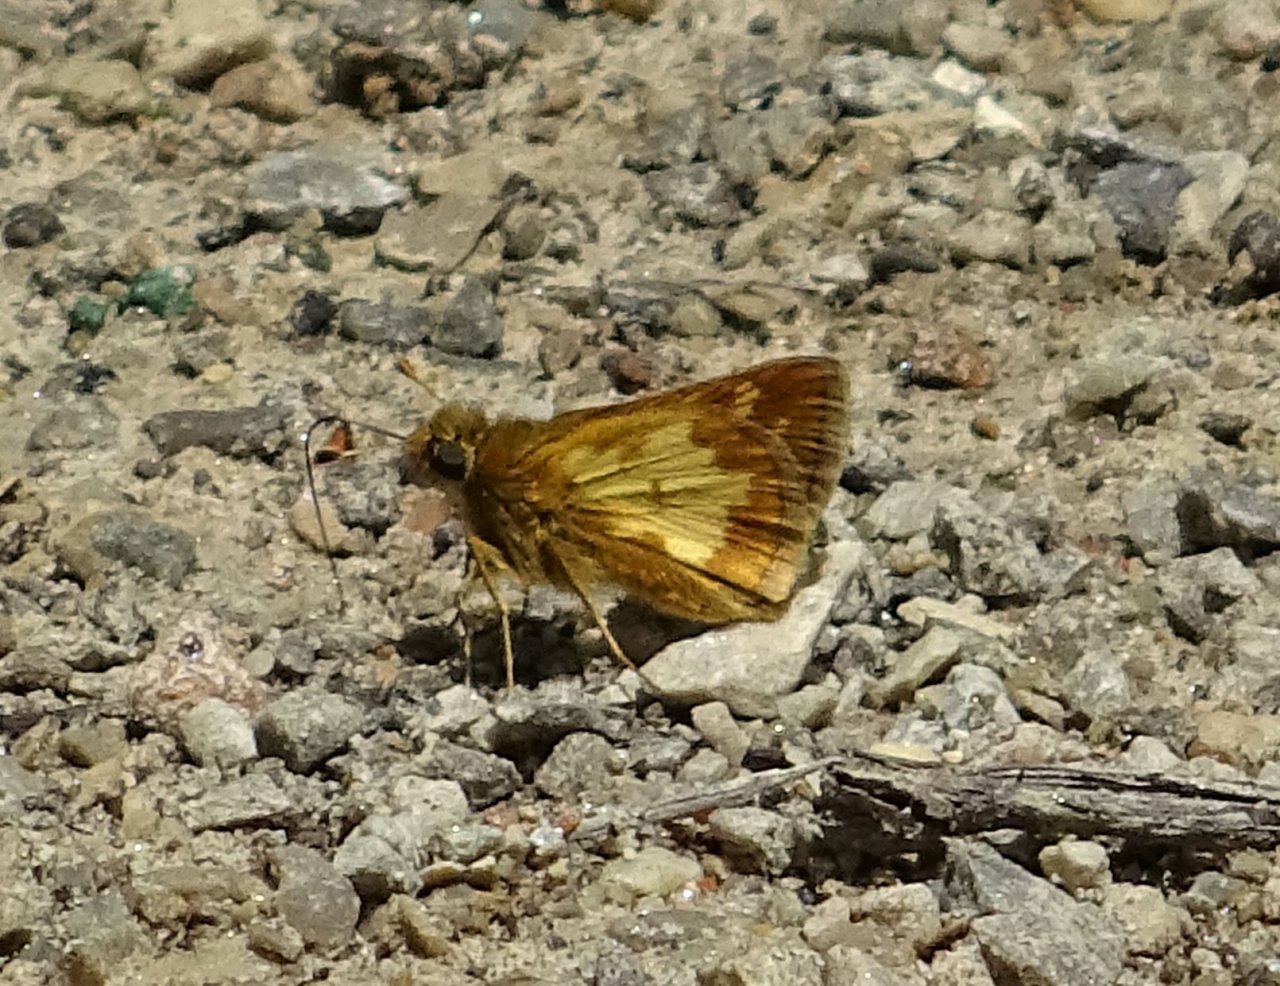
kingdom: Animalia
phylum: Arthropoda
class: Insecta
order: Lepidoptera
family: Hesperiidae
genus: Polites
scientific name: Polites coras
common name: Peck's Skipper
